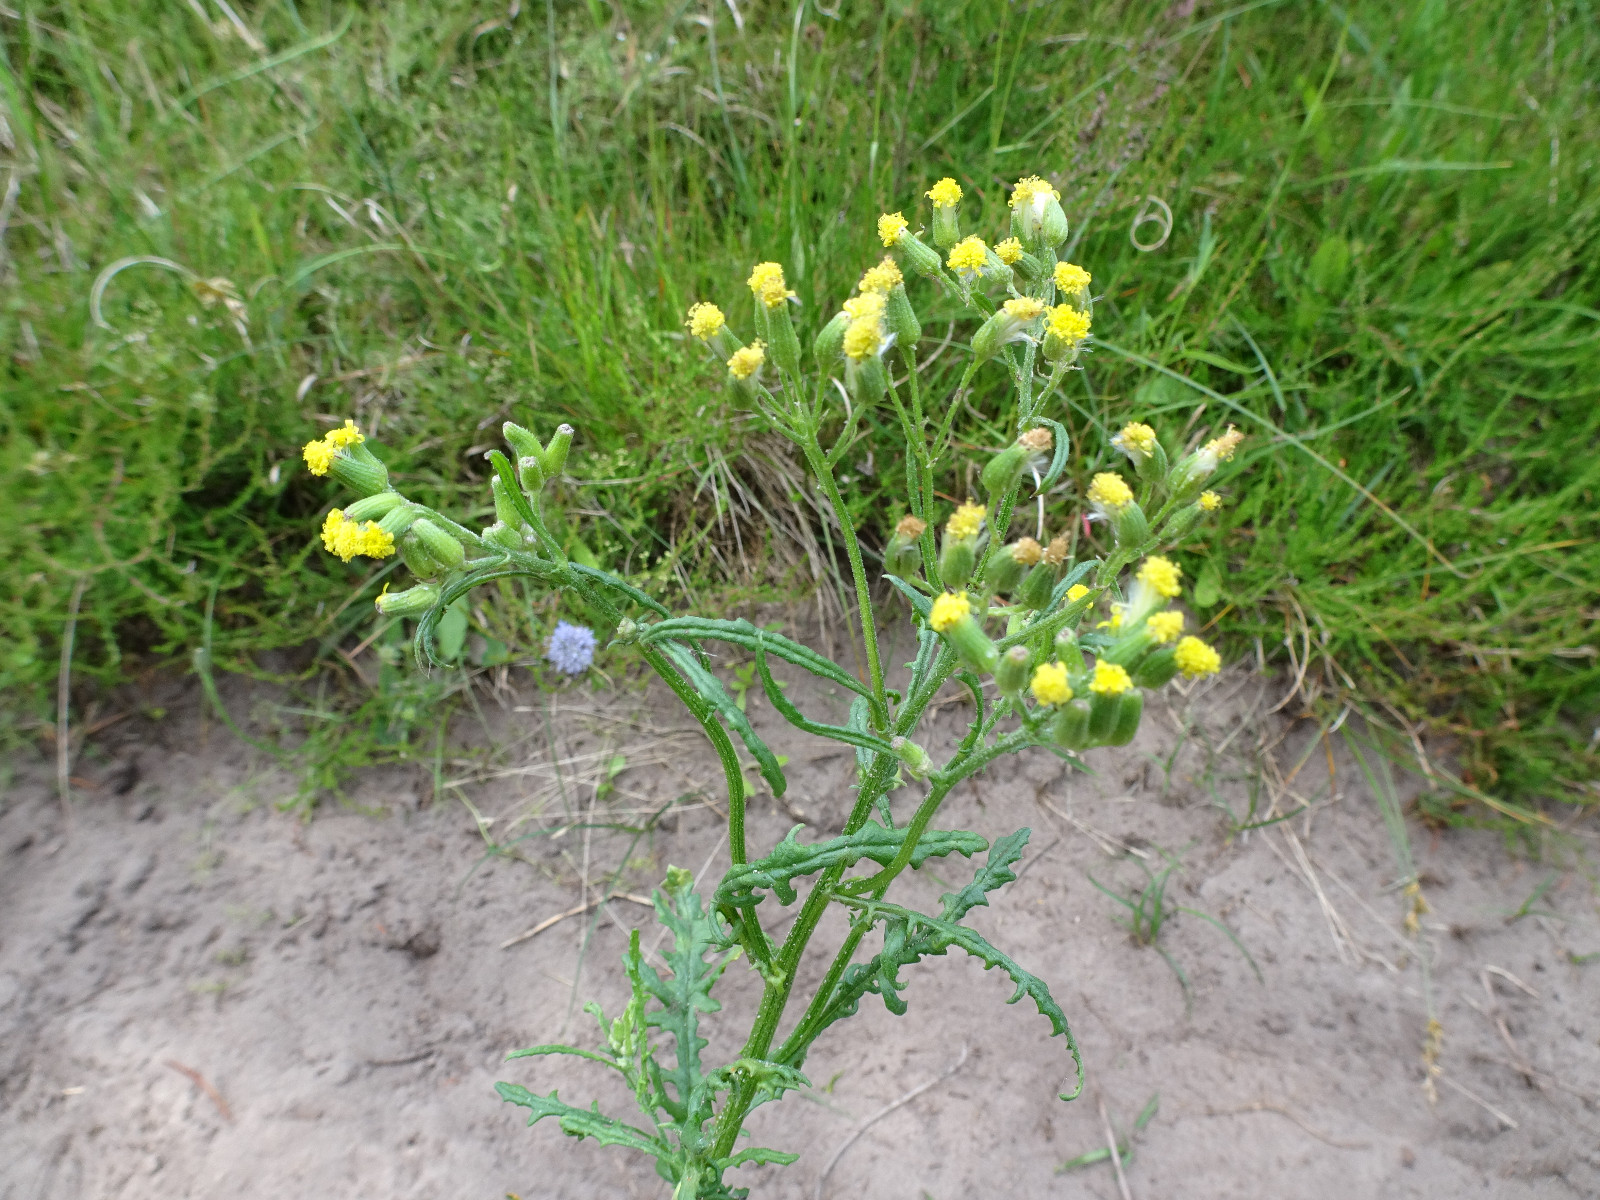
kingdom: Fungi
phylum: Basidiomycota
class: Pucciniomycetes
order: Pucciniales
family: Coleosporiaceae
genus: Coleosporium
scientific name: Coleosporium tussilaginis
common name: almindelig fyrrenålerust
